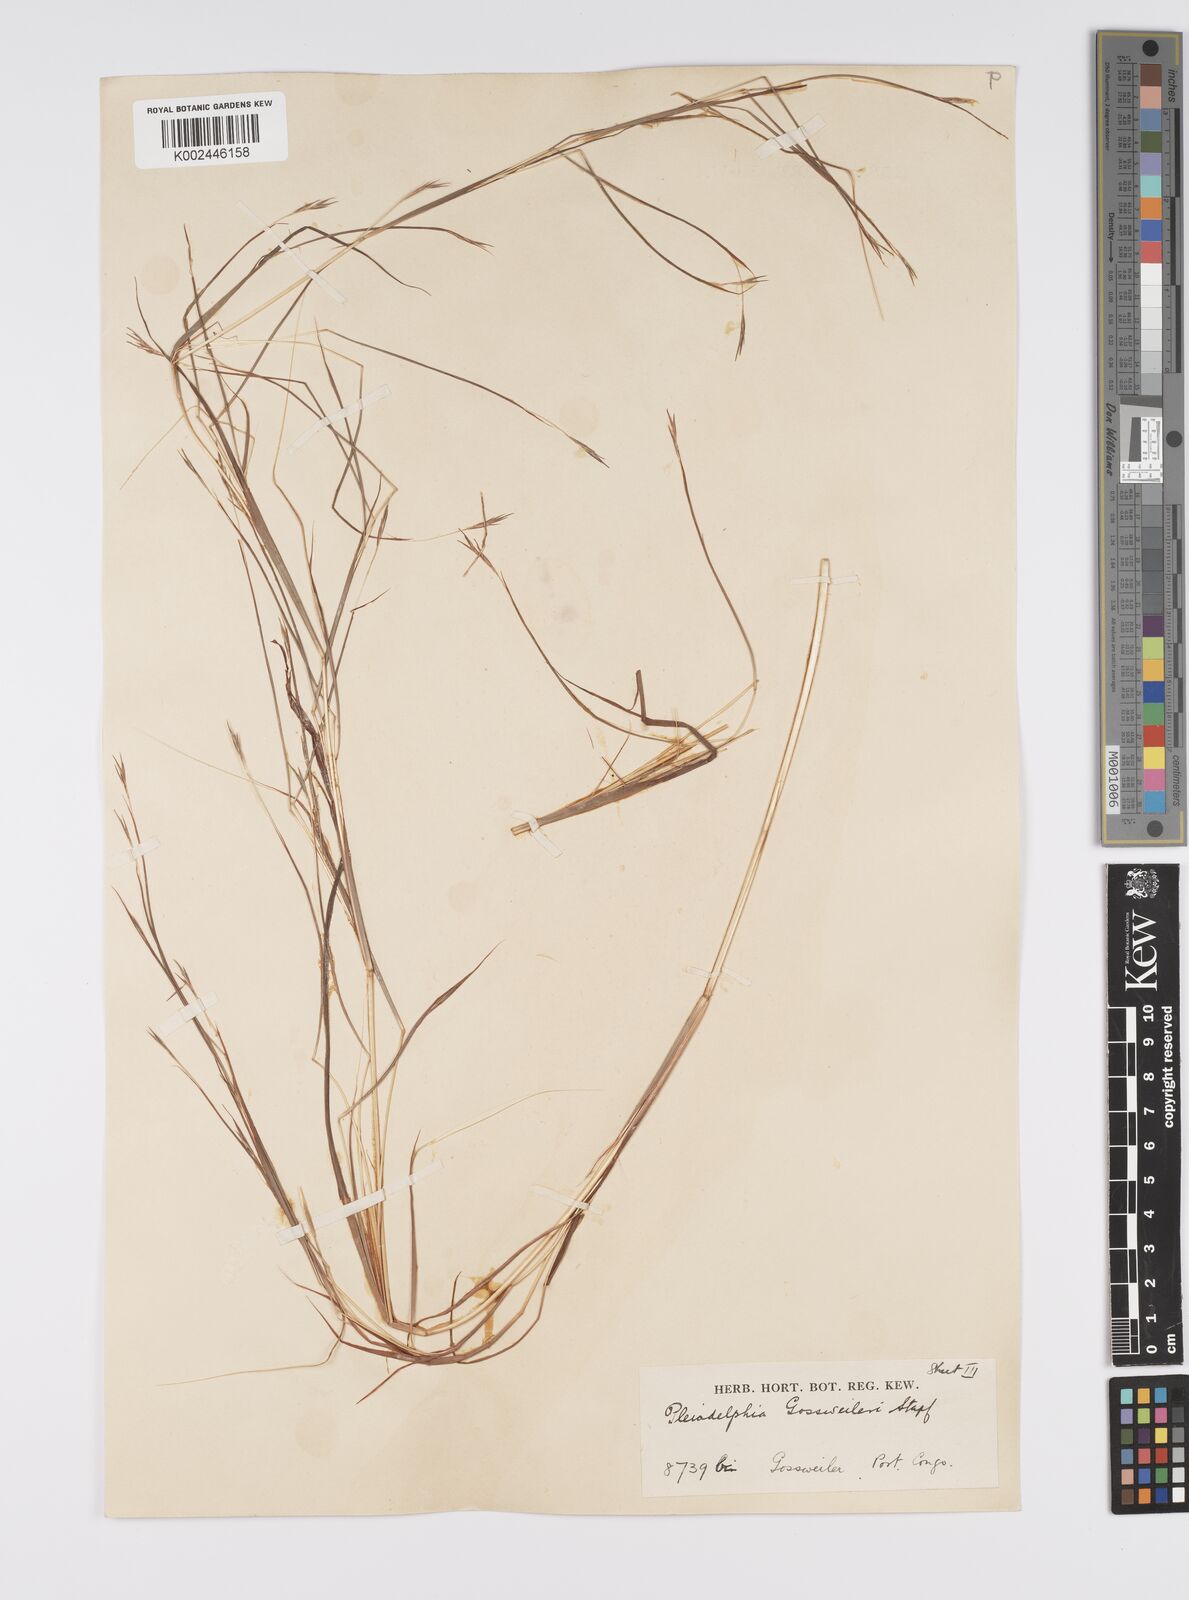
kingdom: Plantae
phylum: Tracheophyta
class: Liliopsida
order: Poales
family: Poaceae
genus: Elymandra
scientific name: Elymandra gossweileri
